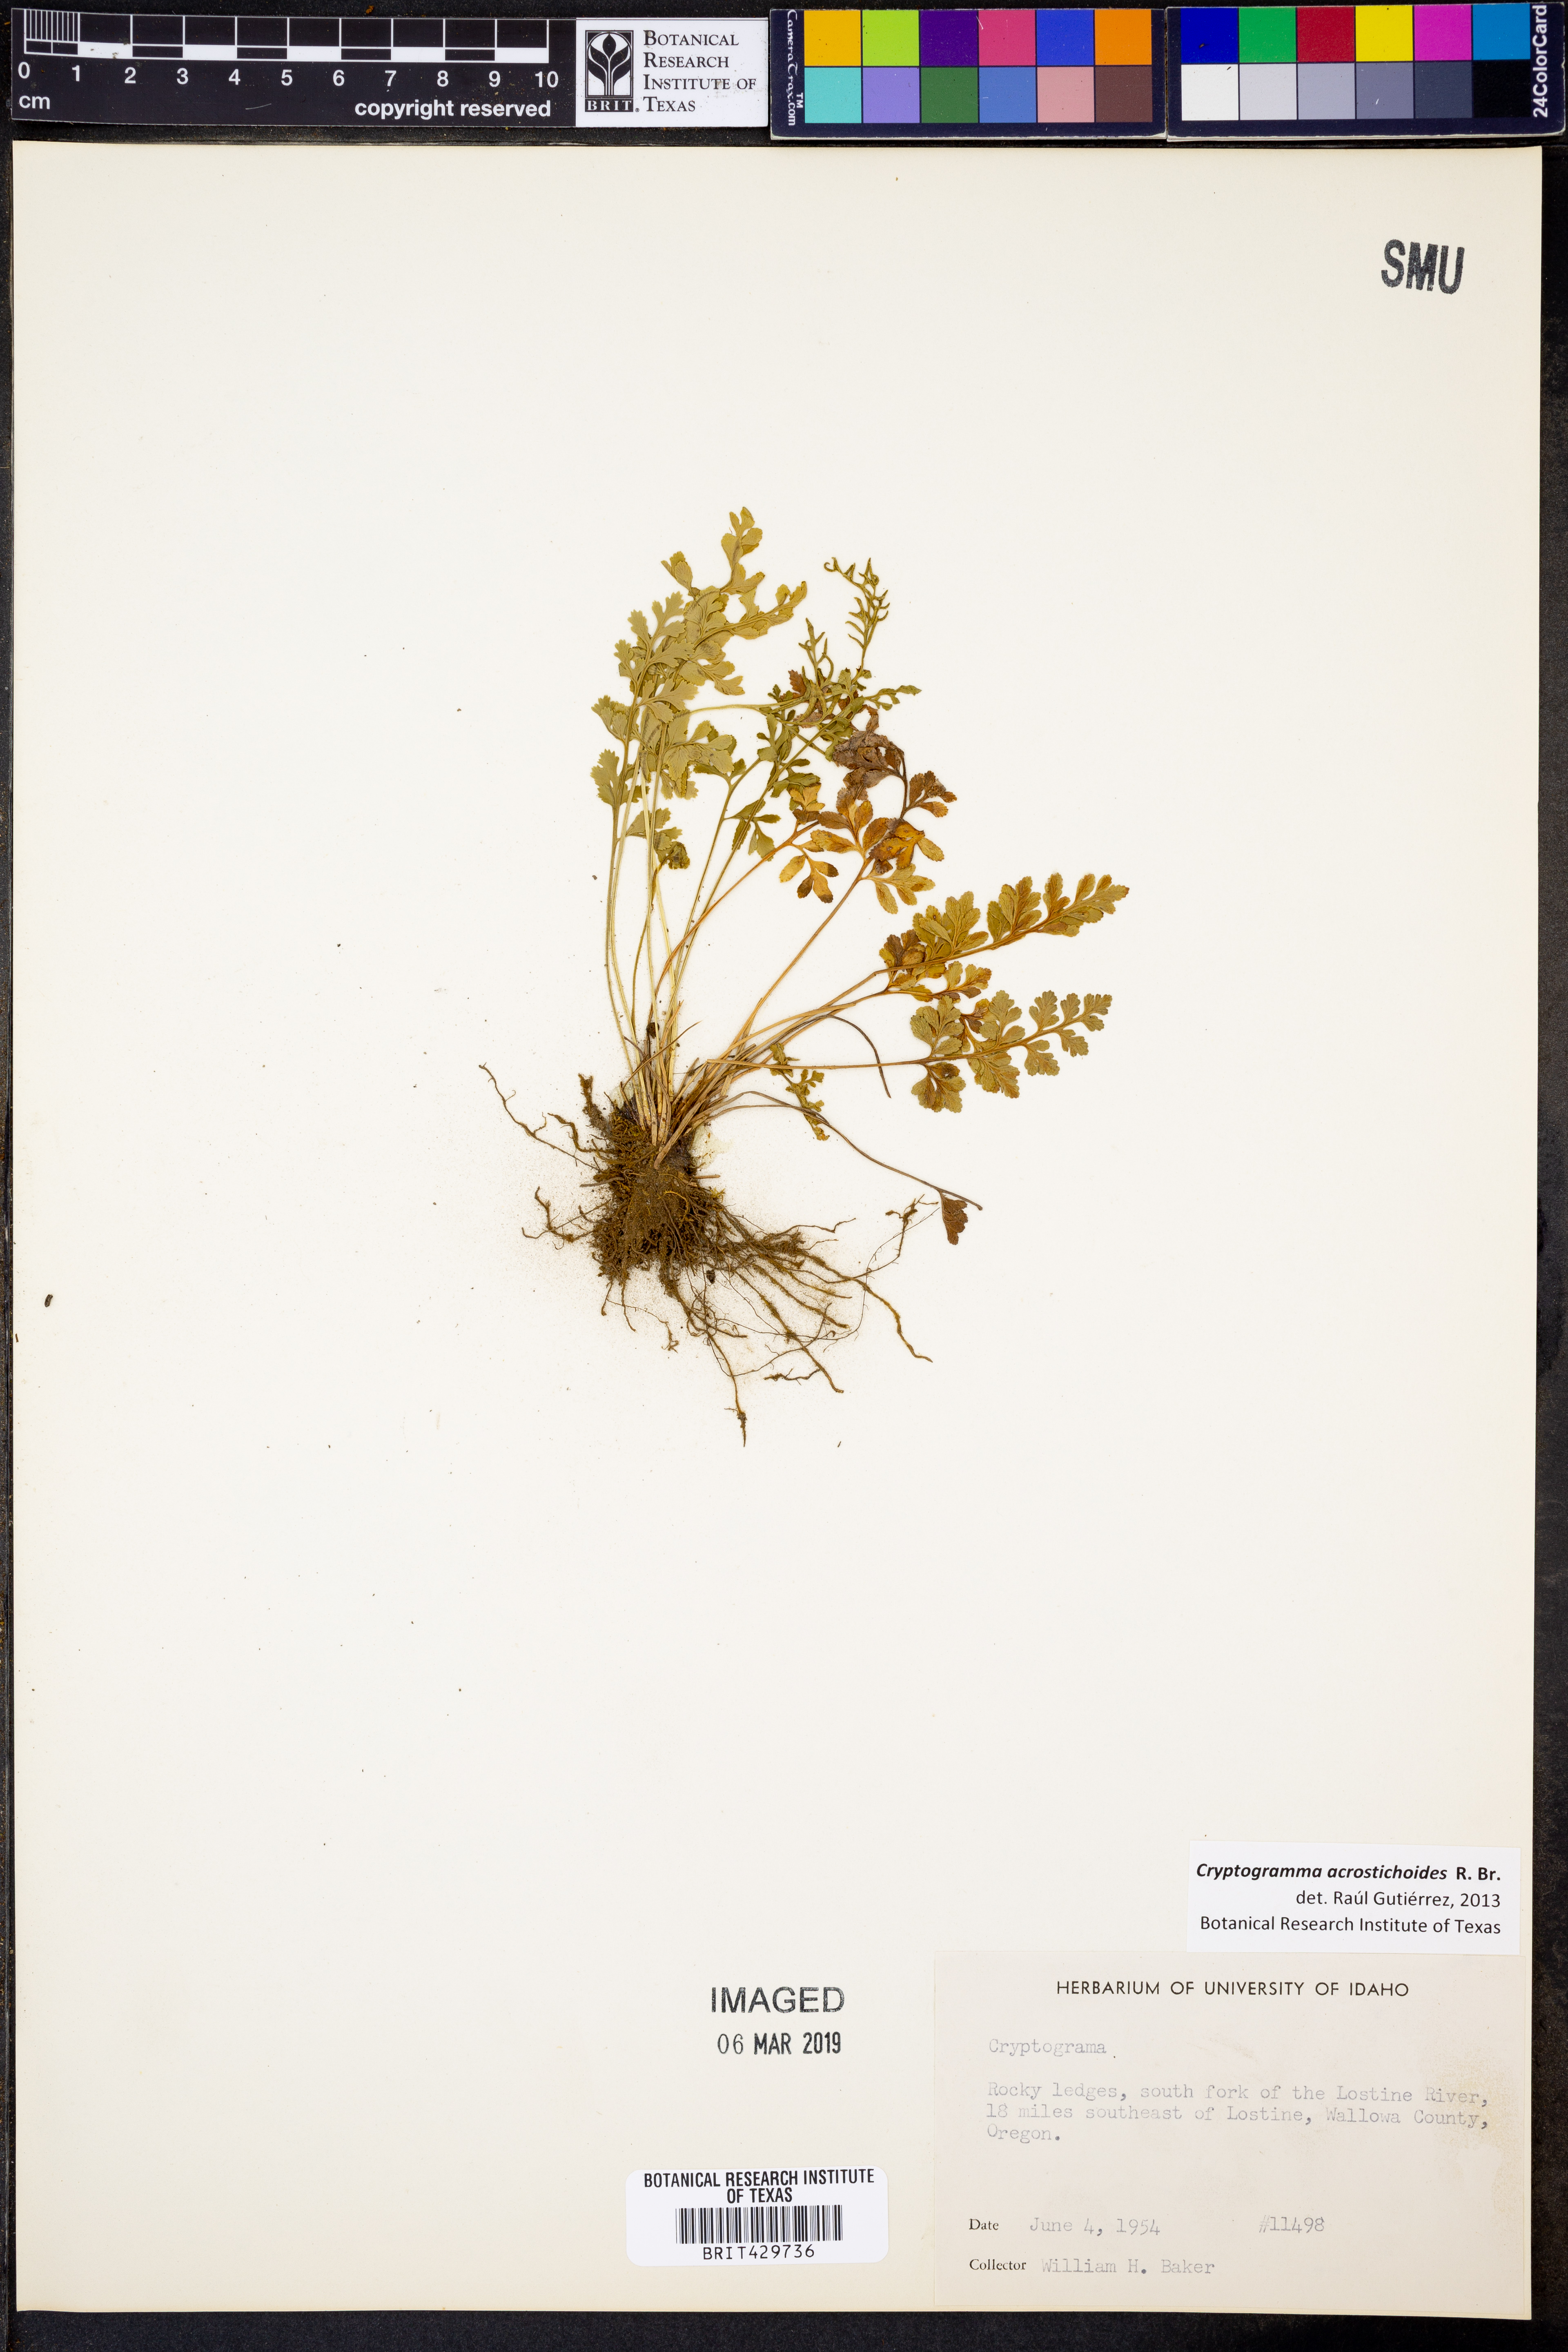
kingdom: Plantae
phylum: Tracheophyta
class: Polypodiopsida
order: Polypodiales
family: Pteridaceae
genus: Cryptogramma
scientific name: Cryptogramma acrostichoides
